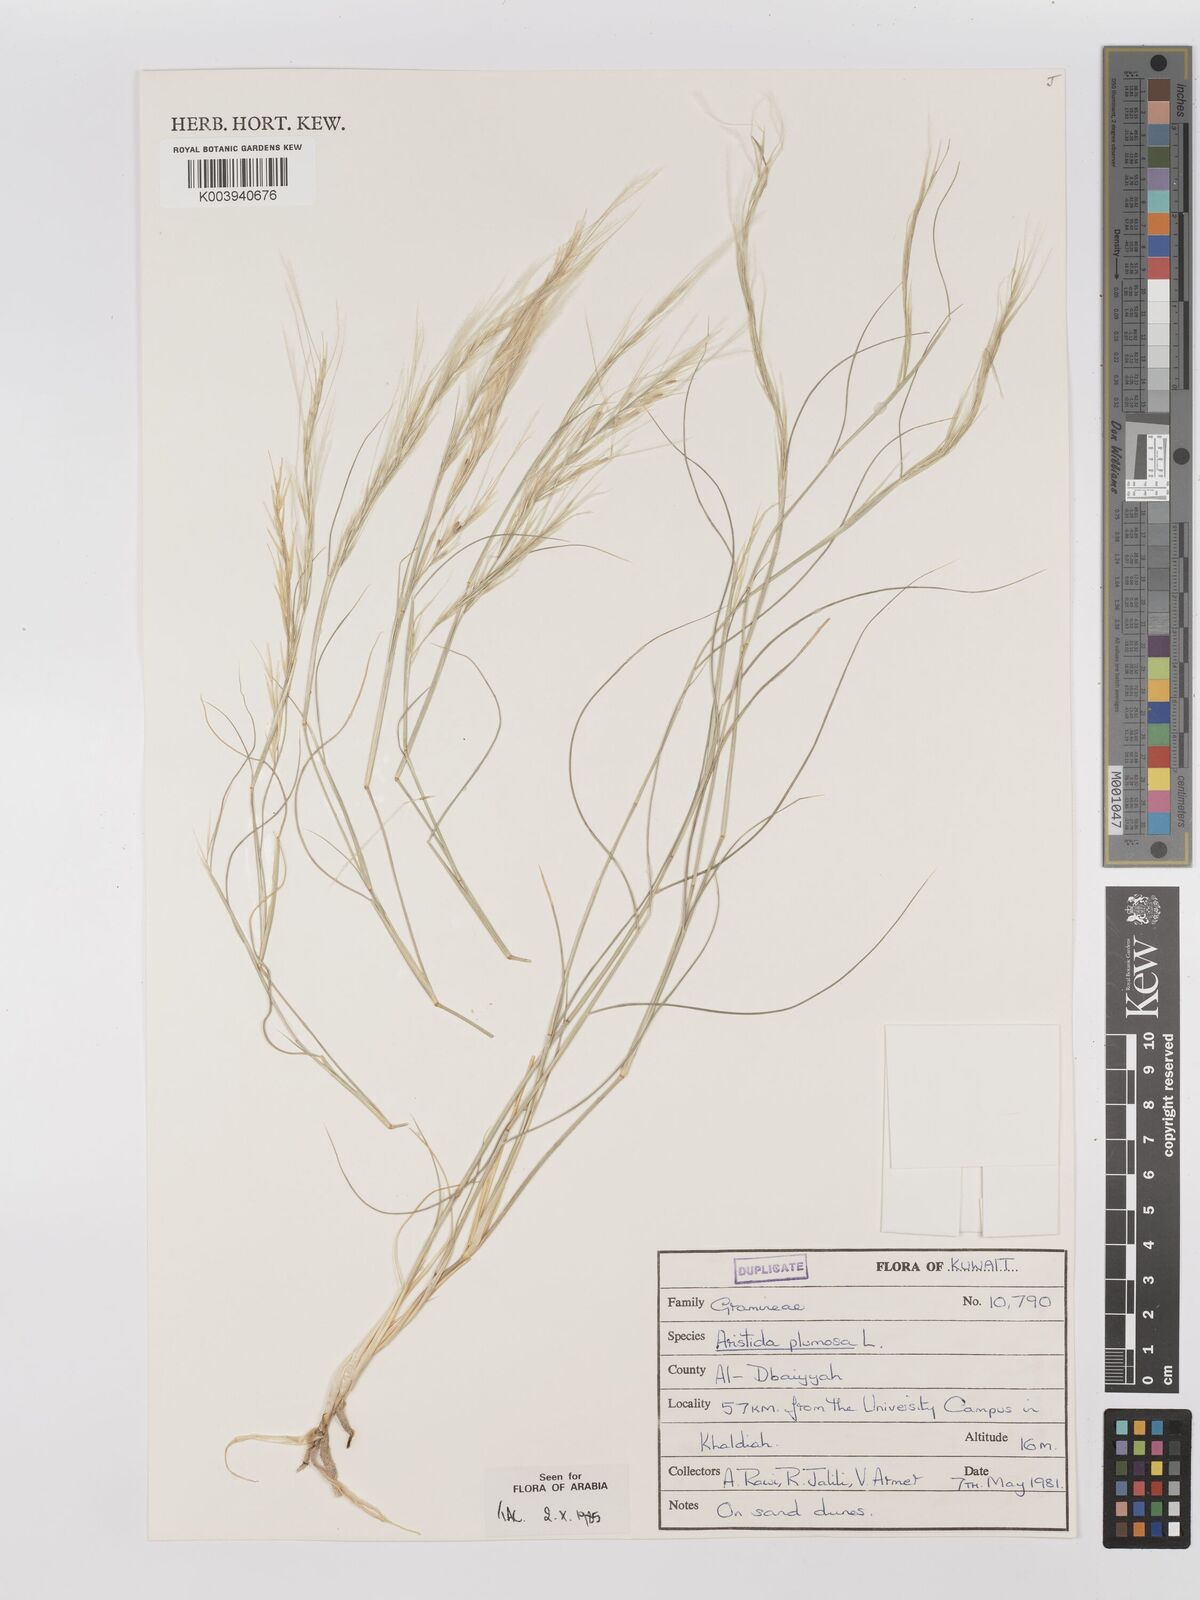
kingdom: Plantae
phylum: Tracheophyta
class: Liliopsida
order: Poales
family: Poaceae
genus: Stipagrostis
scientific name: Stipagrostis plumosa
